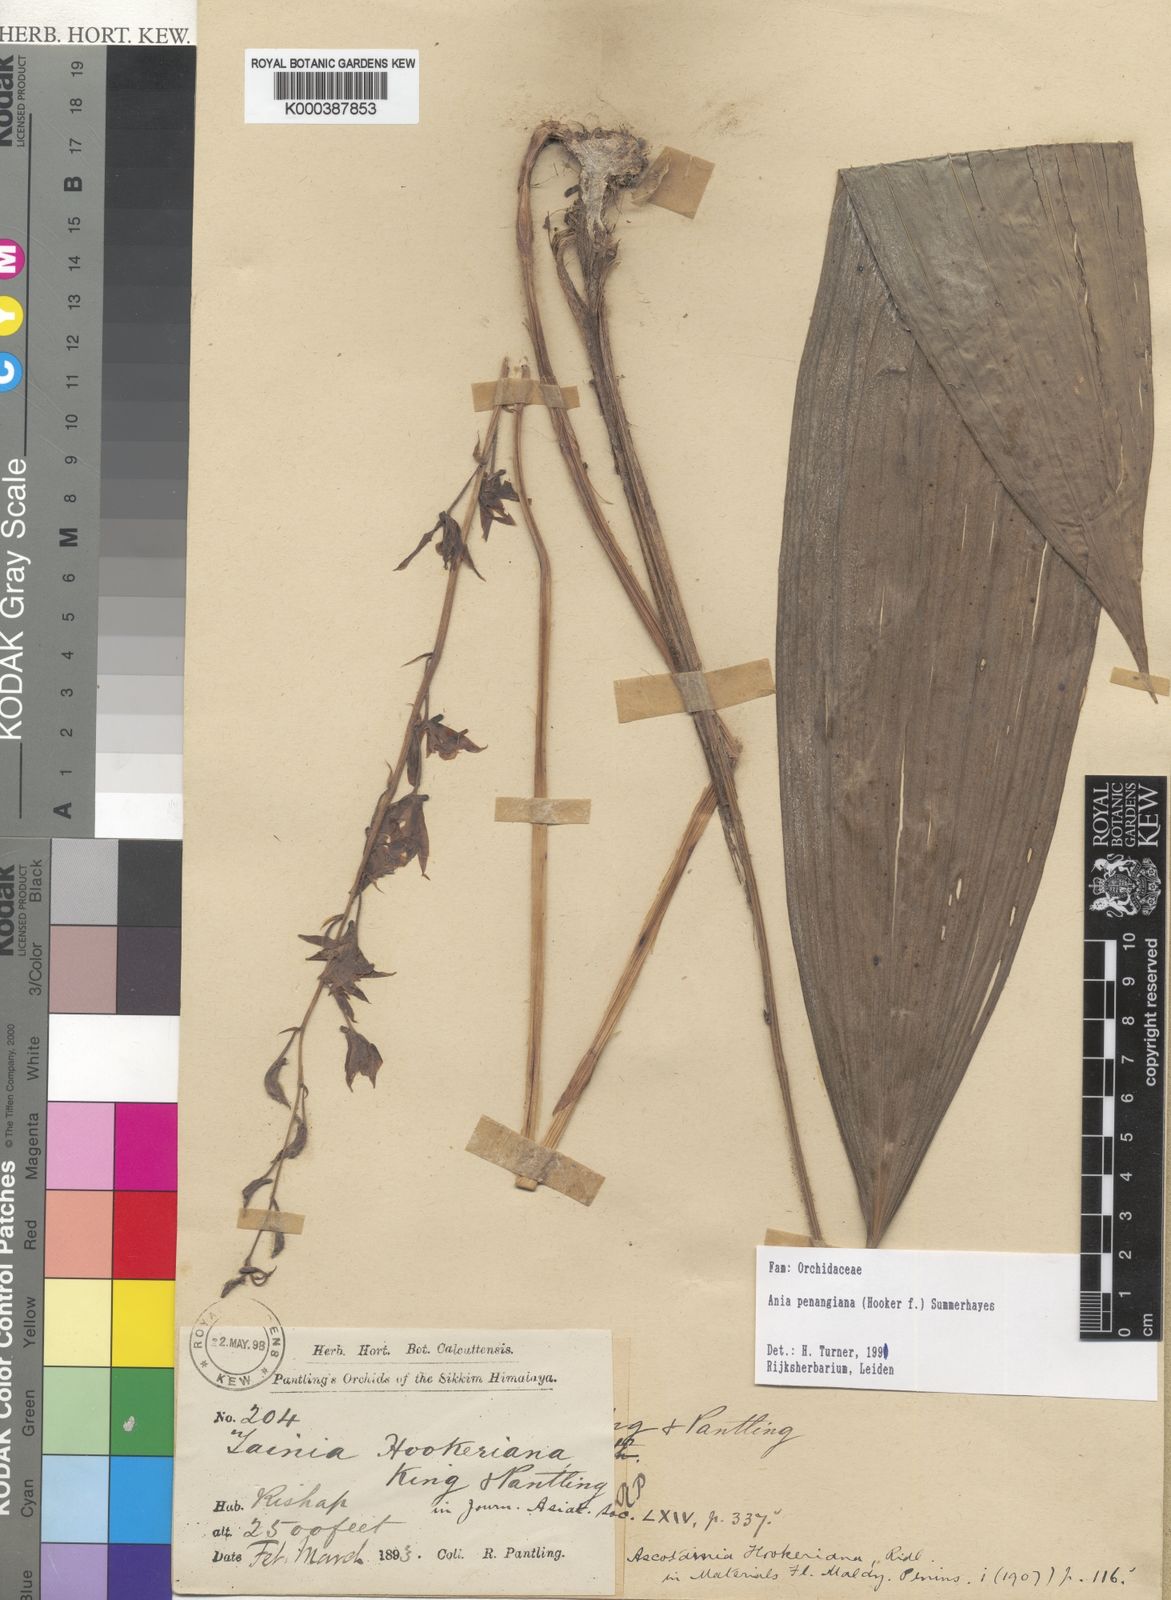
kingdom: Plantae
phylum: Tracheophyta
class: Liliopsida
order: Asparagales
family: Orchidaceae
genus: Ania
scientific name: Ania penangiana
